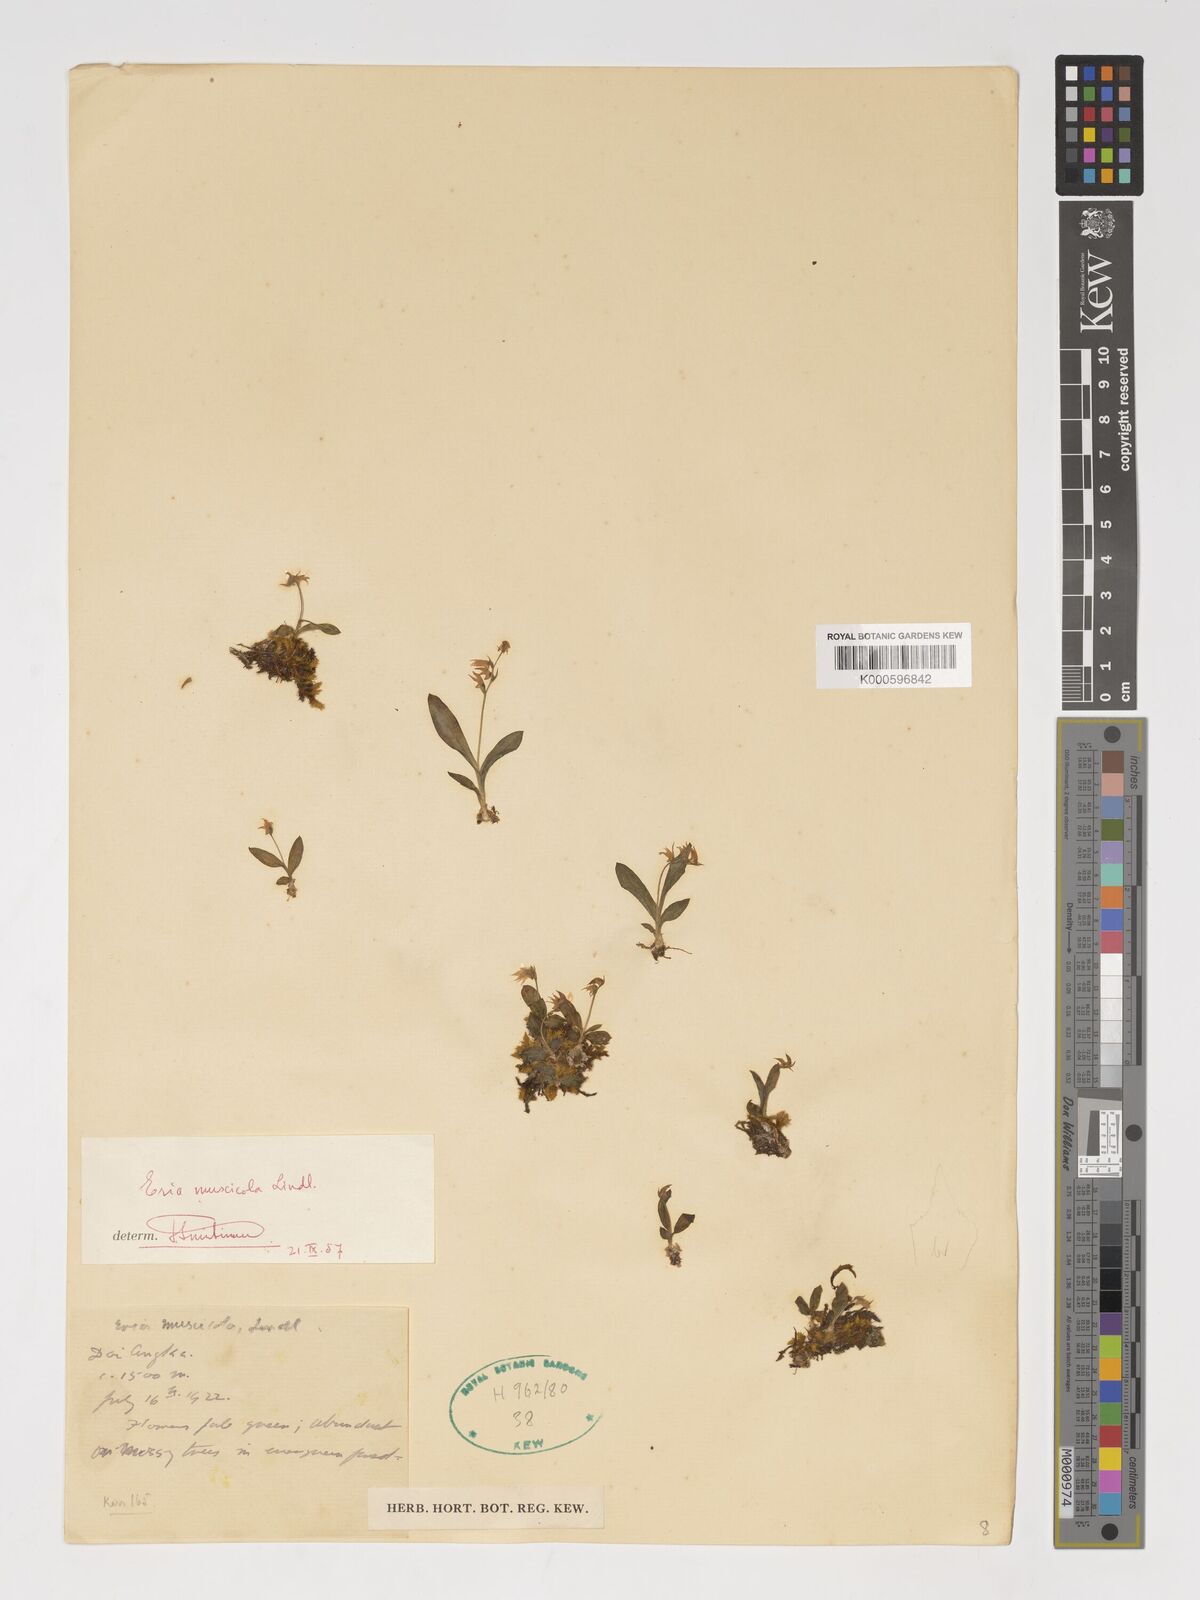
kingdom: Plantae
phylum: Tracheophyta
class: Liliopsida
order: Asparagales
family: Orchidaceae
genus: Porpax
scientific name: Porpax parviflorum
